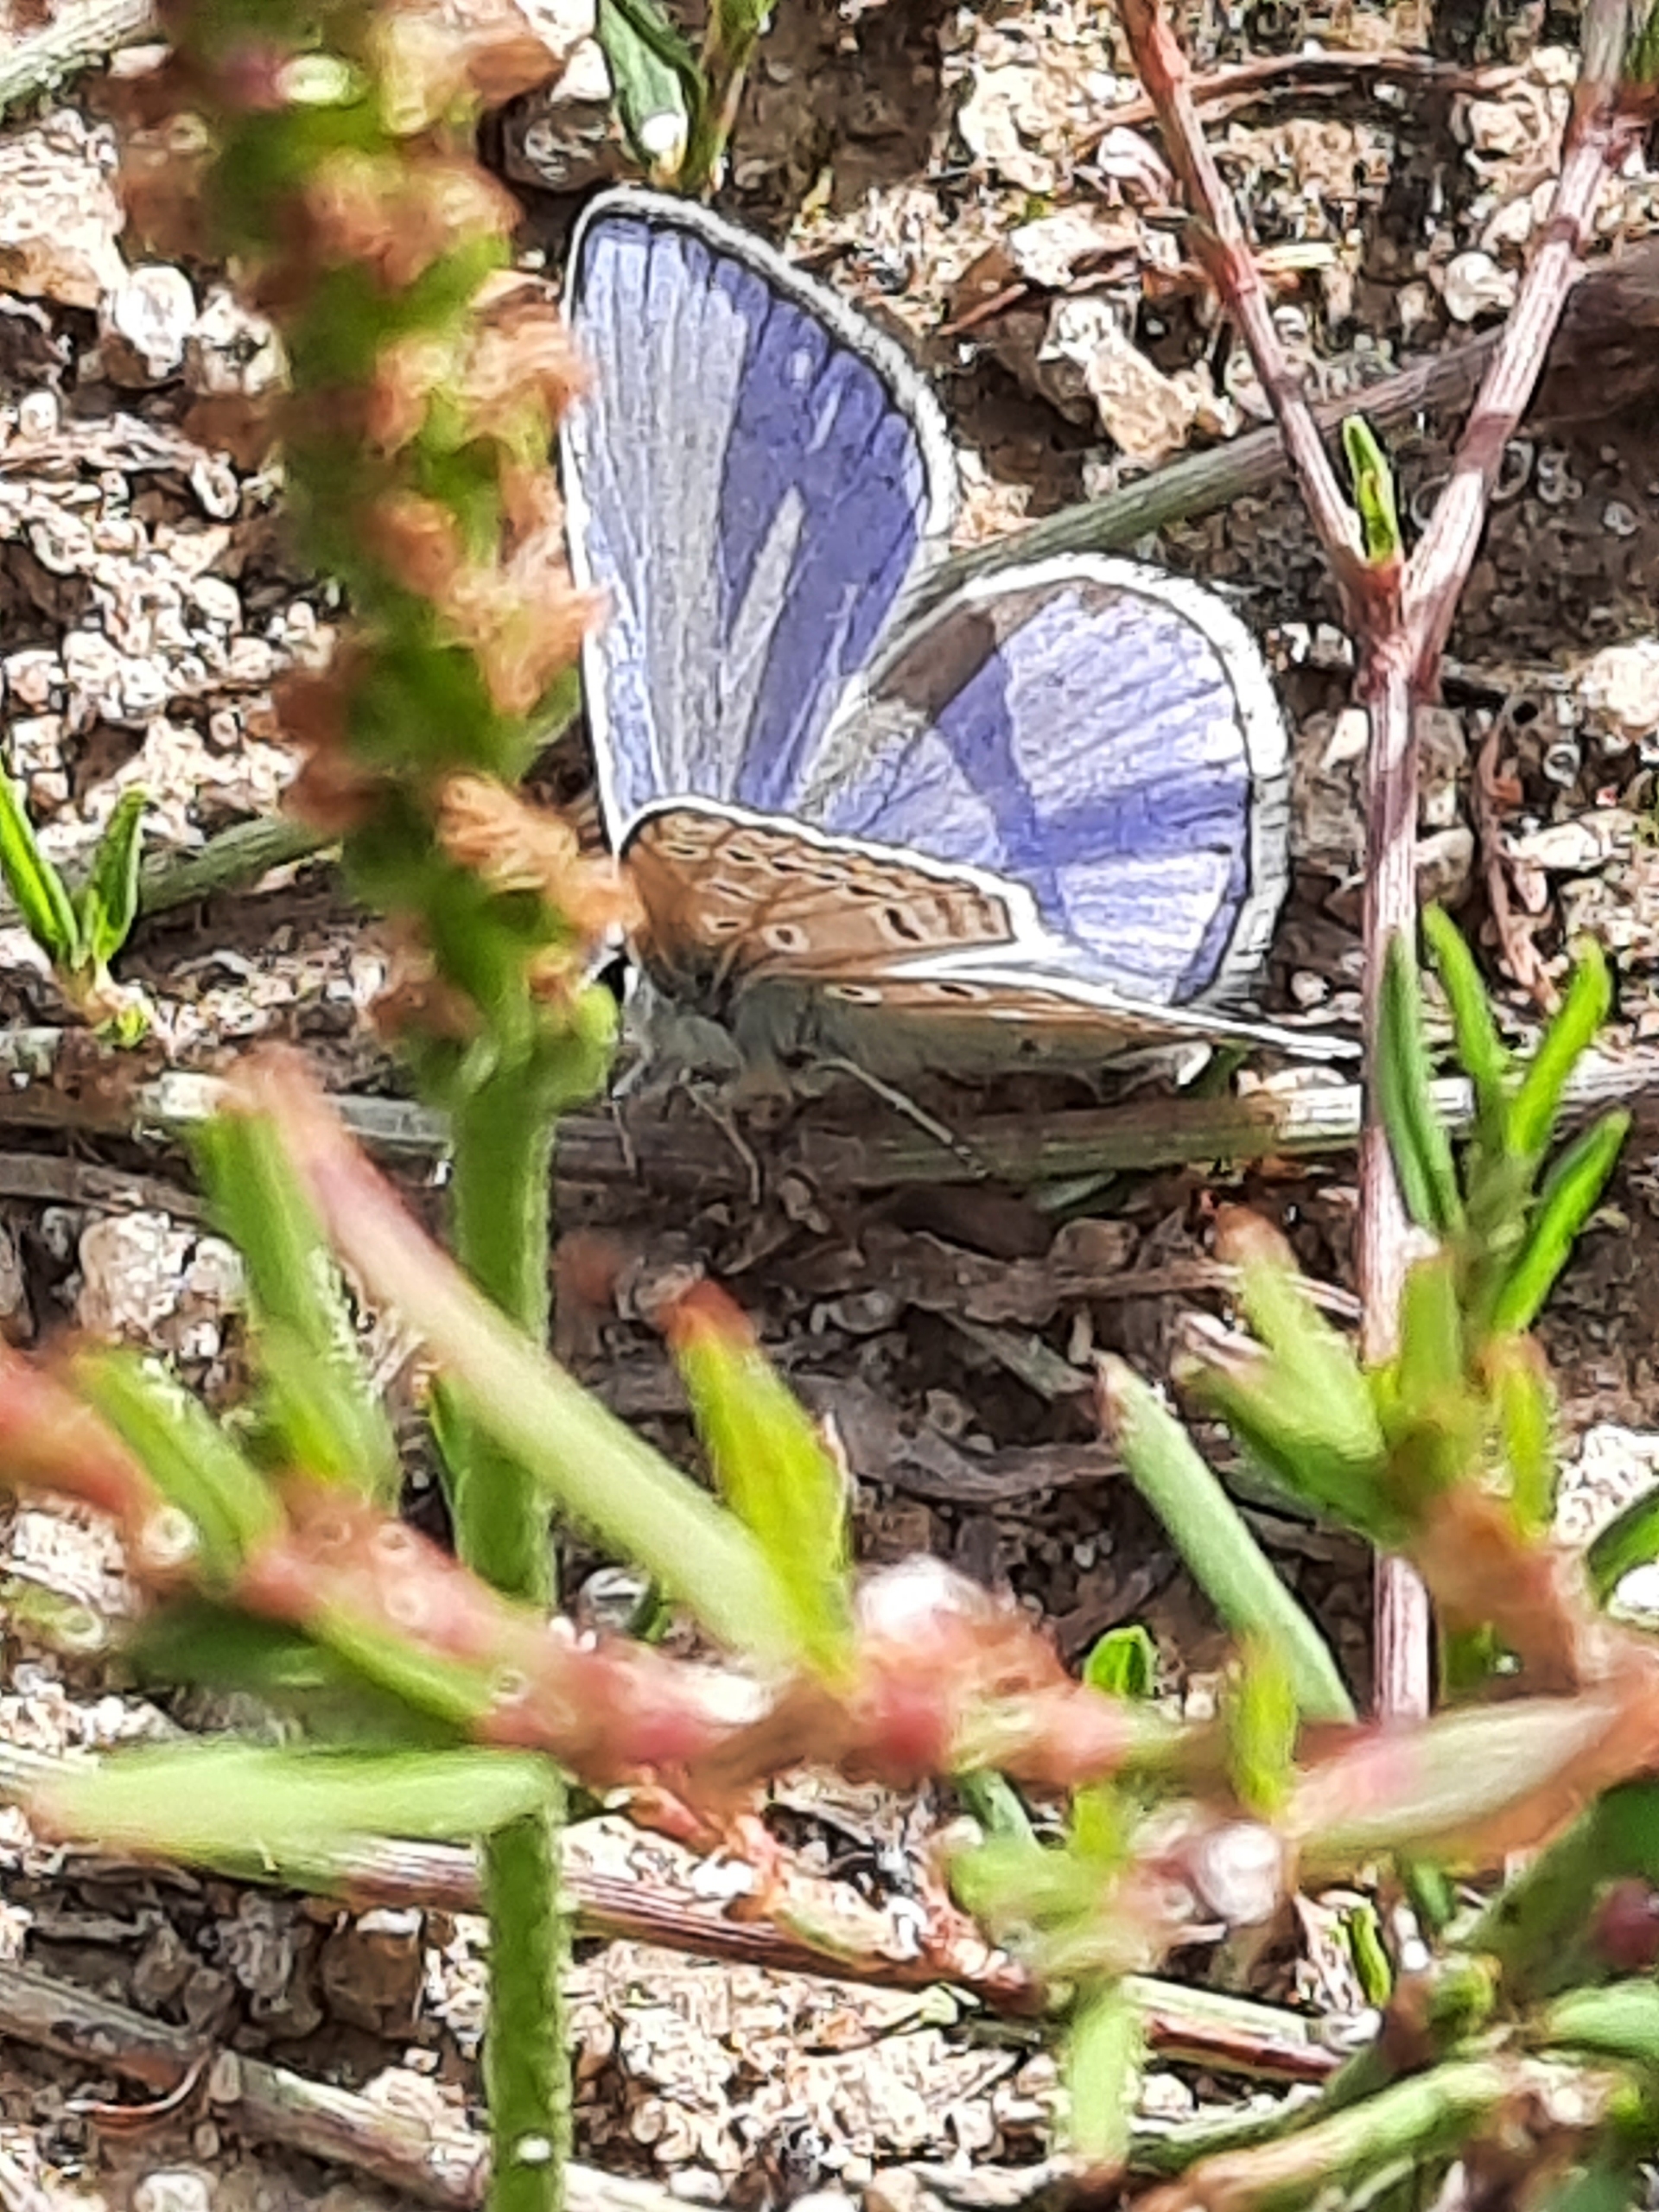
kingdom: Animalia
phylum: Arthropoda
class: Insecta
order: Lepidoptera
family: Lycaenidae
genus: Polyommatus
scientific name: Polyommatus icarus
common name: Almindelig blåfugl
